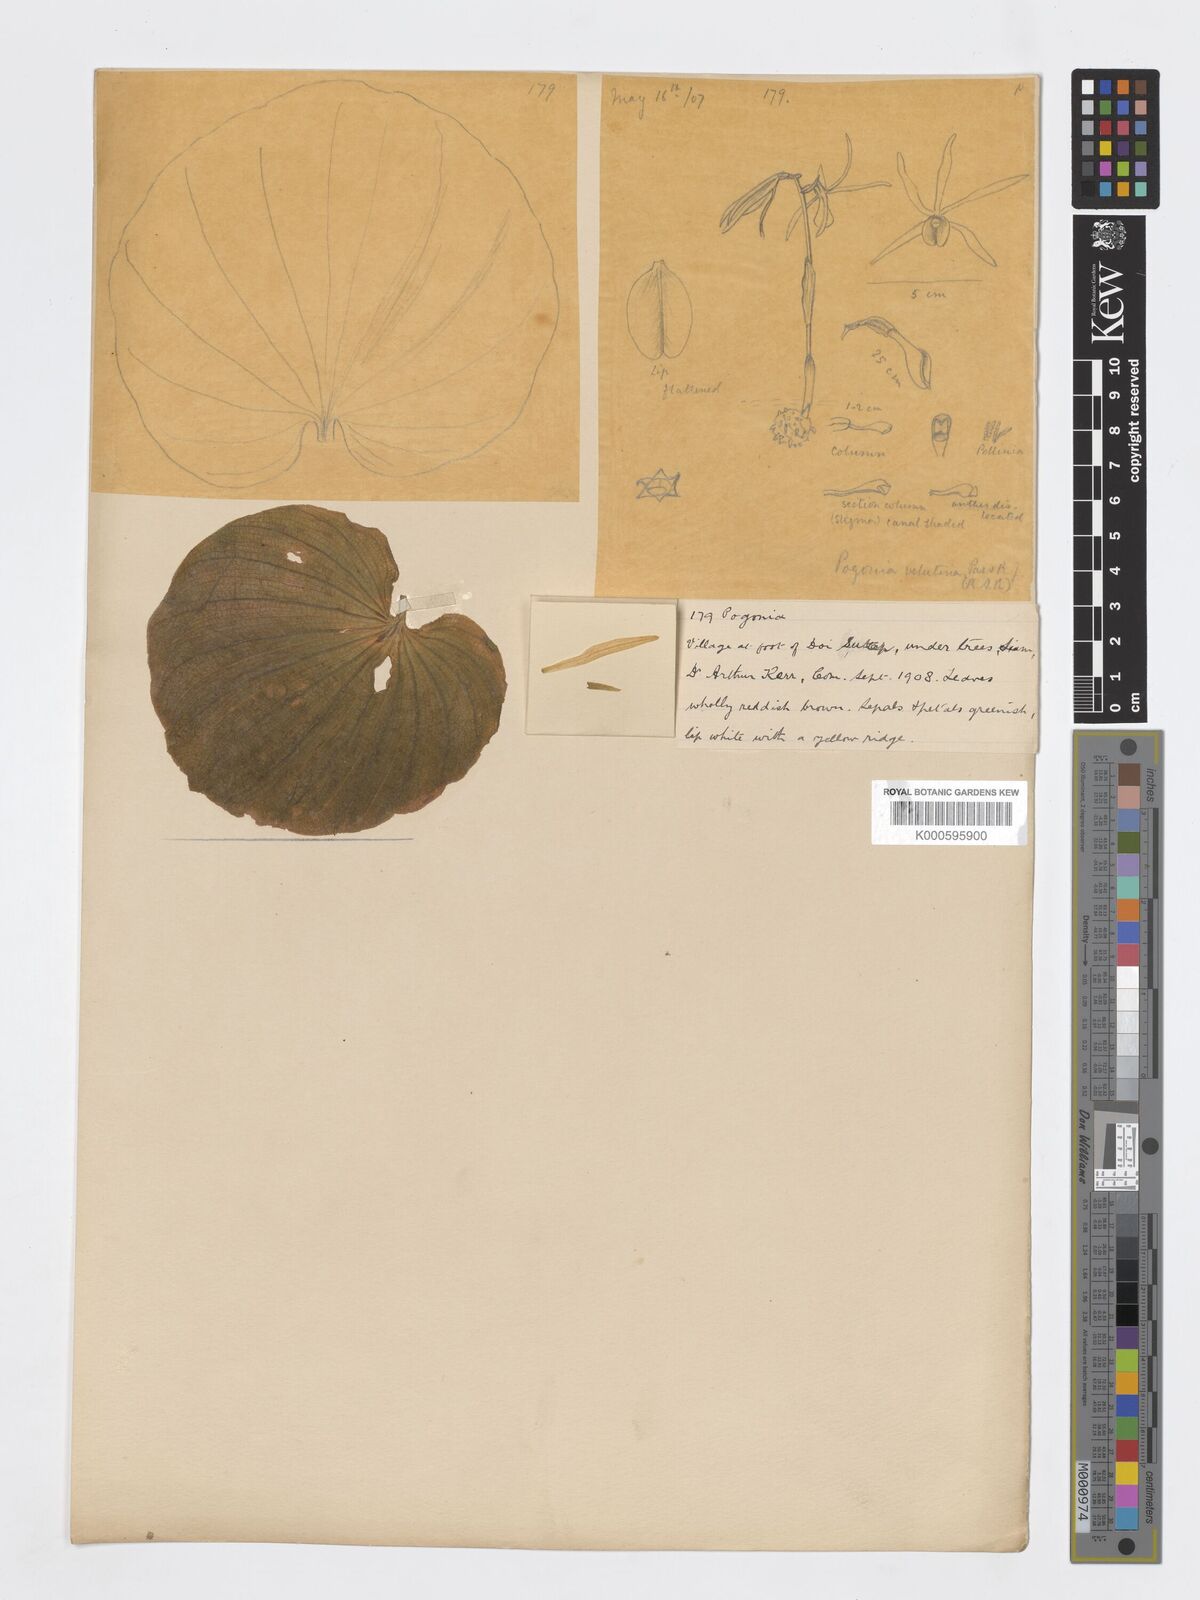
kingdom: Plantae
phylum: Tracheophyta
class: Liliopsida
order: Asparagales
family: Orchidaceae
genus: Nervilia
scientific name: Nervilia plicata
